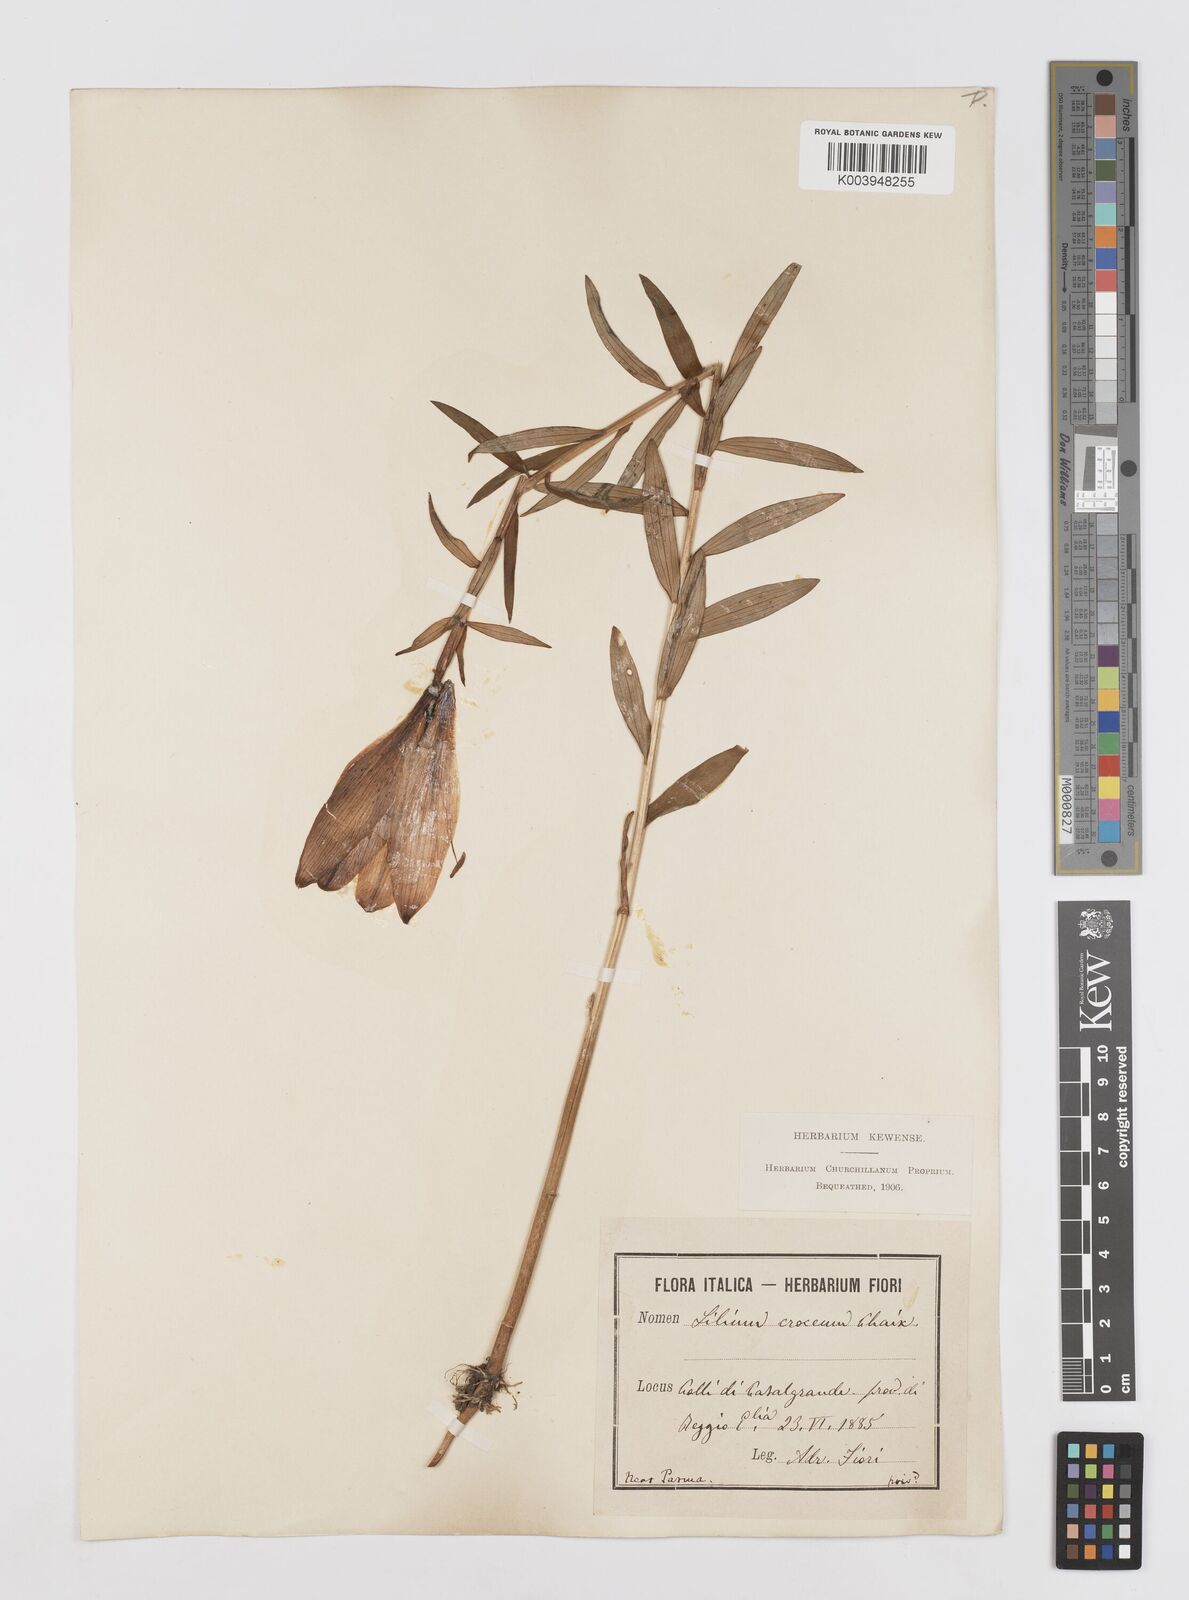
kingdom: Plantae
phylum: Tracheophyta
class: Liliopsida
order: Liliales
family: Liliaceae
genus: Lilium
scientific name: Lilium bulbiferum
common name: Orange lily
